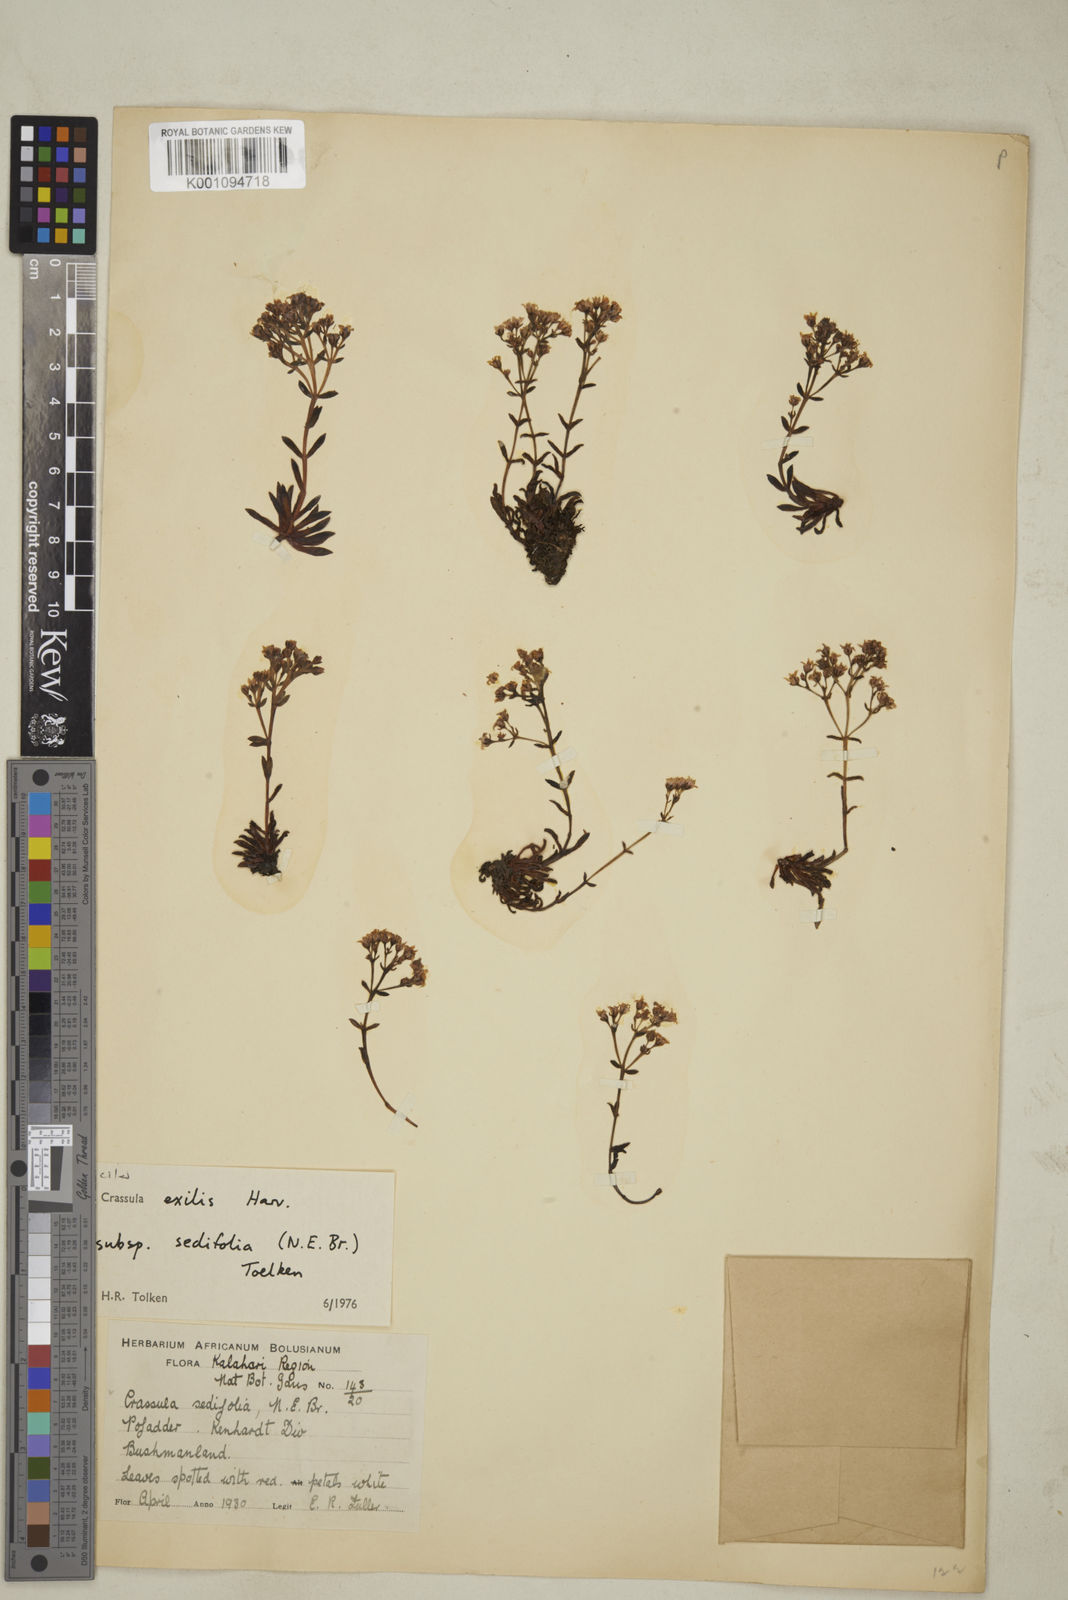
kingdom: Plantae
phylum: Tracheophyta
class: Magnoliopsida
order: Saxifragales
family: Crassulaceae
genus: Crassula
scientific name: Crassula exilis
